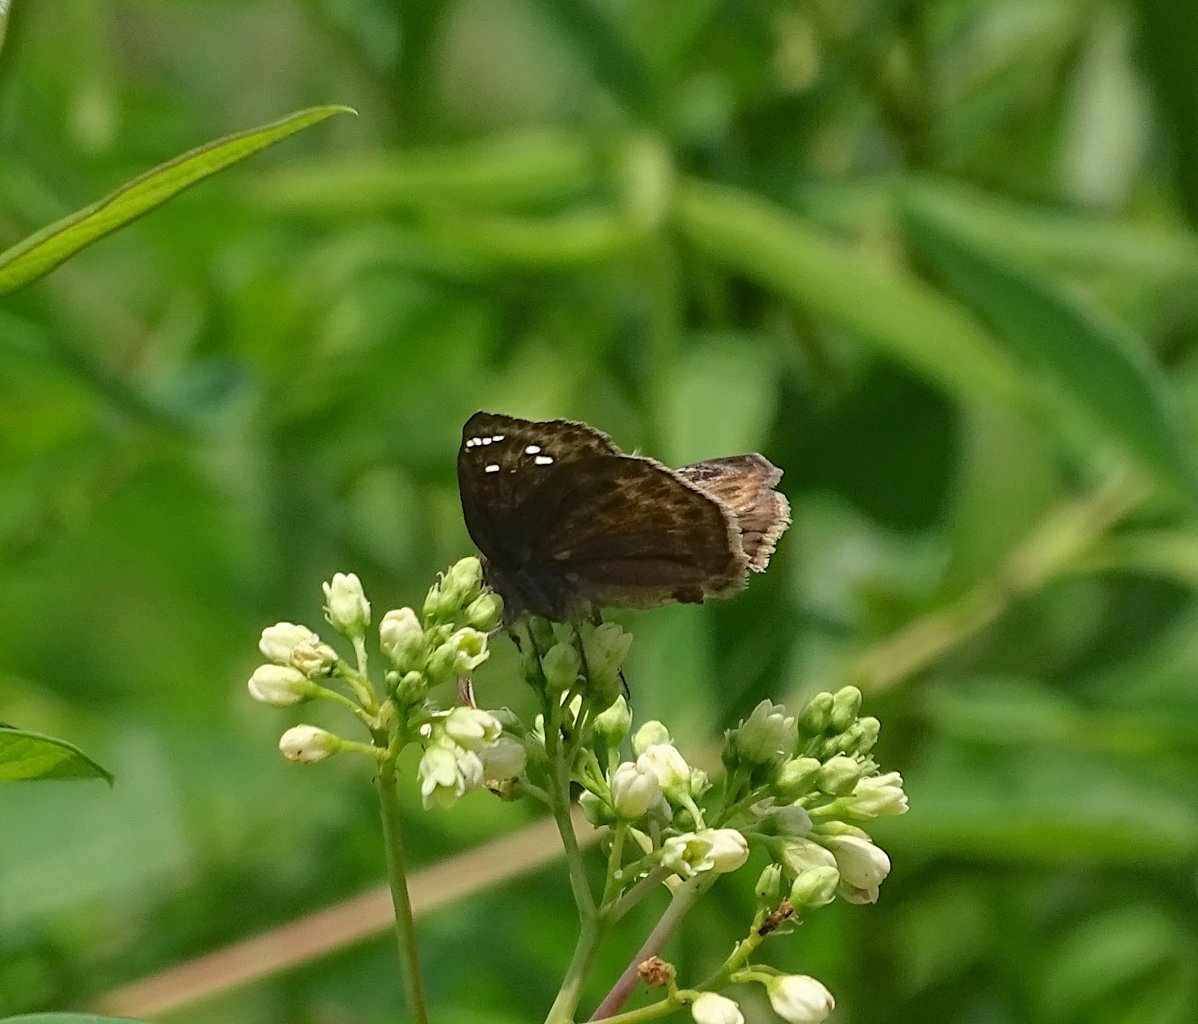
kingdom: Animalia
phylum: Arthropoda
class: Insecta
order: Lepidoptera
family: Hesperiidae
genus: Gesta
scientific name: Gesta
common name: Horace's Duskywing
